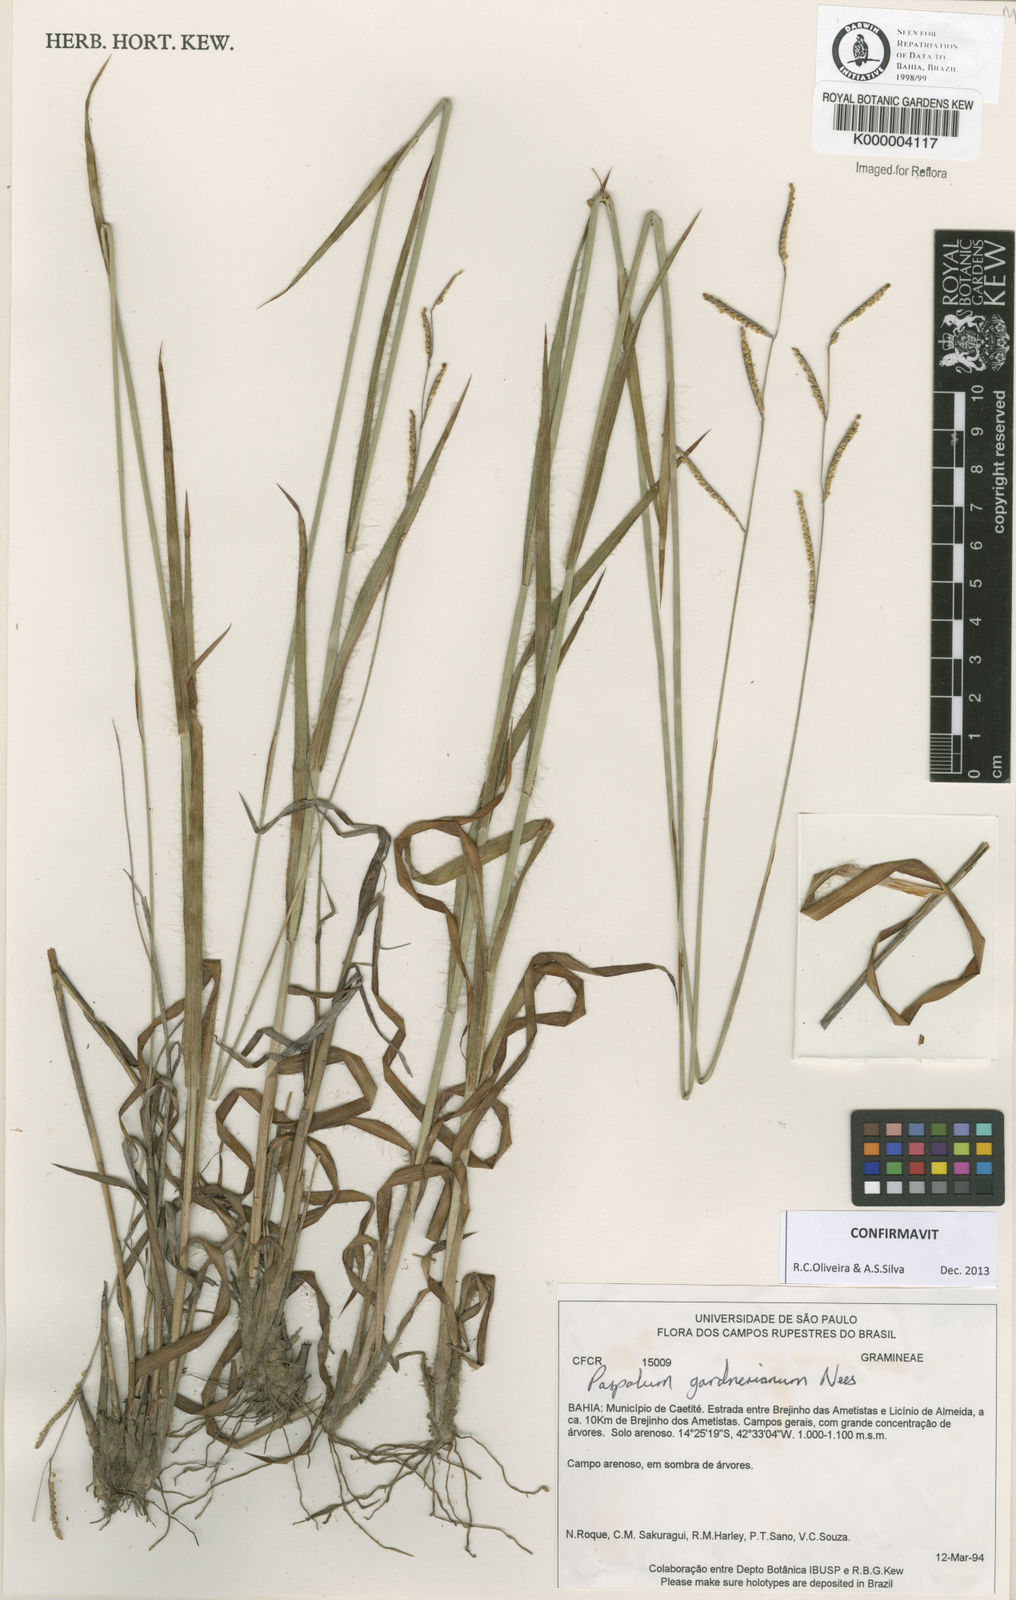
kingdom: Plantae
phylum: Tracheophyta
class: Liliopsida
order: Poales
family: Poaceae
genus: Paspalum
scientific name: Paspalum gardnerianum
